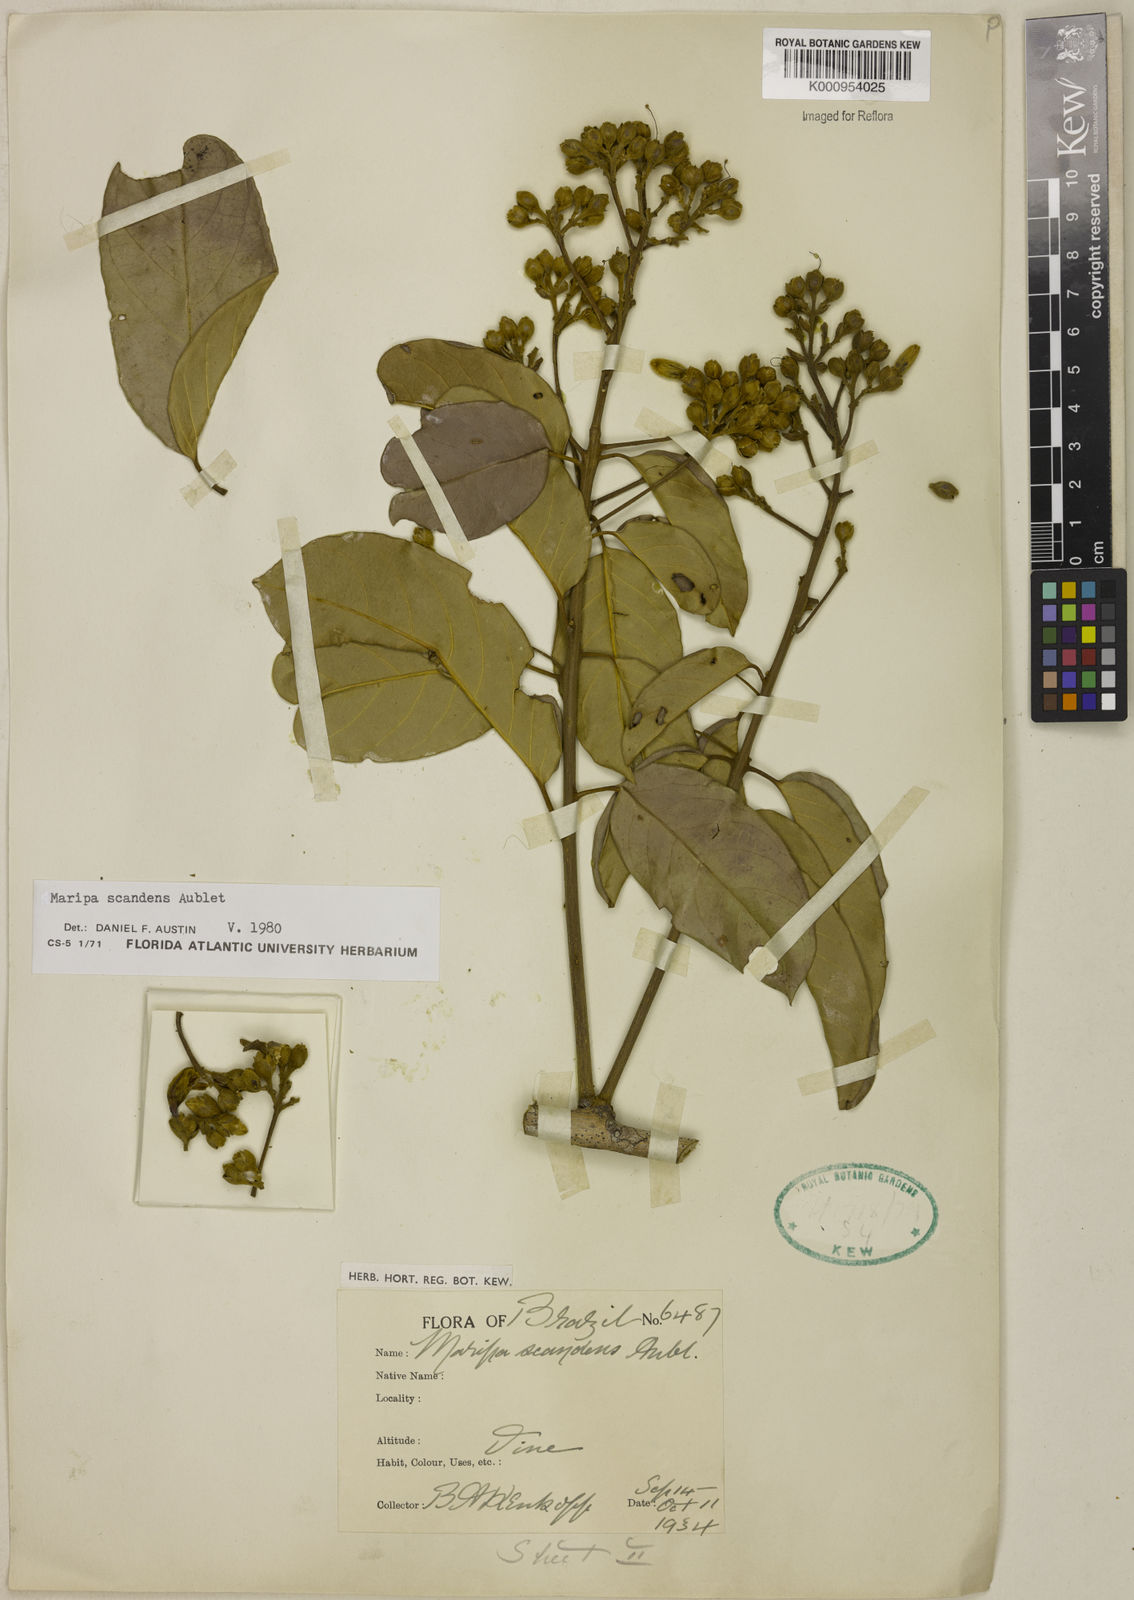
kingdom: Plantae
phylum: Tracheophyta
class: Magnoliopsida
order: Solanales
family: Convolvulaceae
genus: Maripa
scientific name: Maripa scandens
